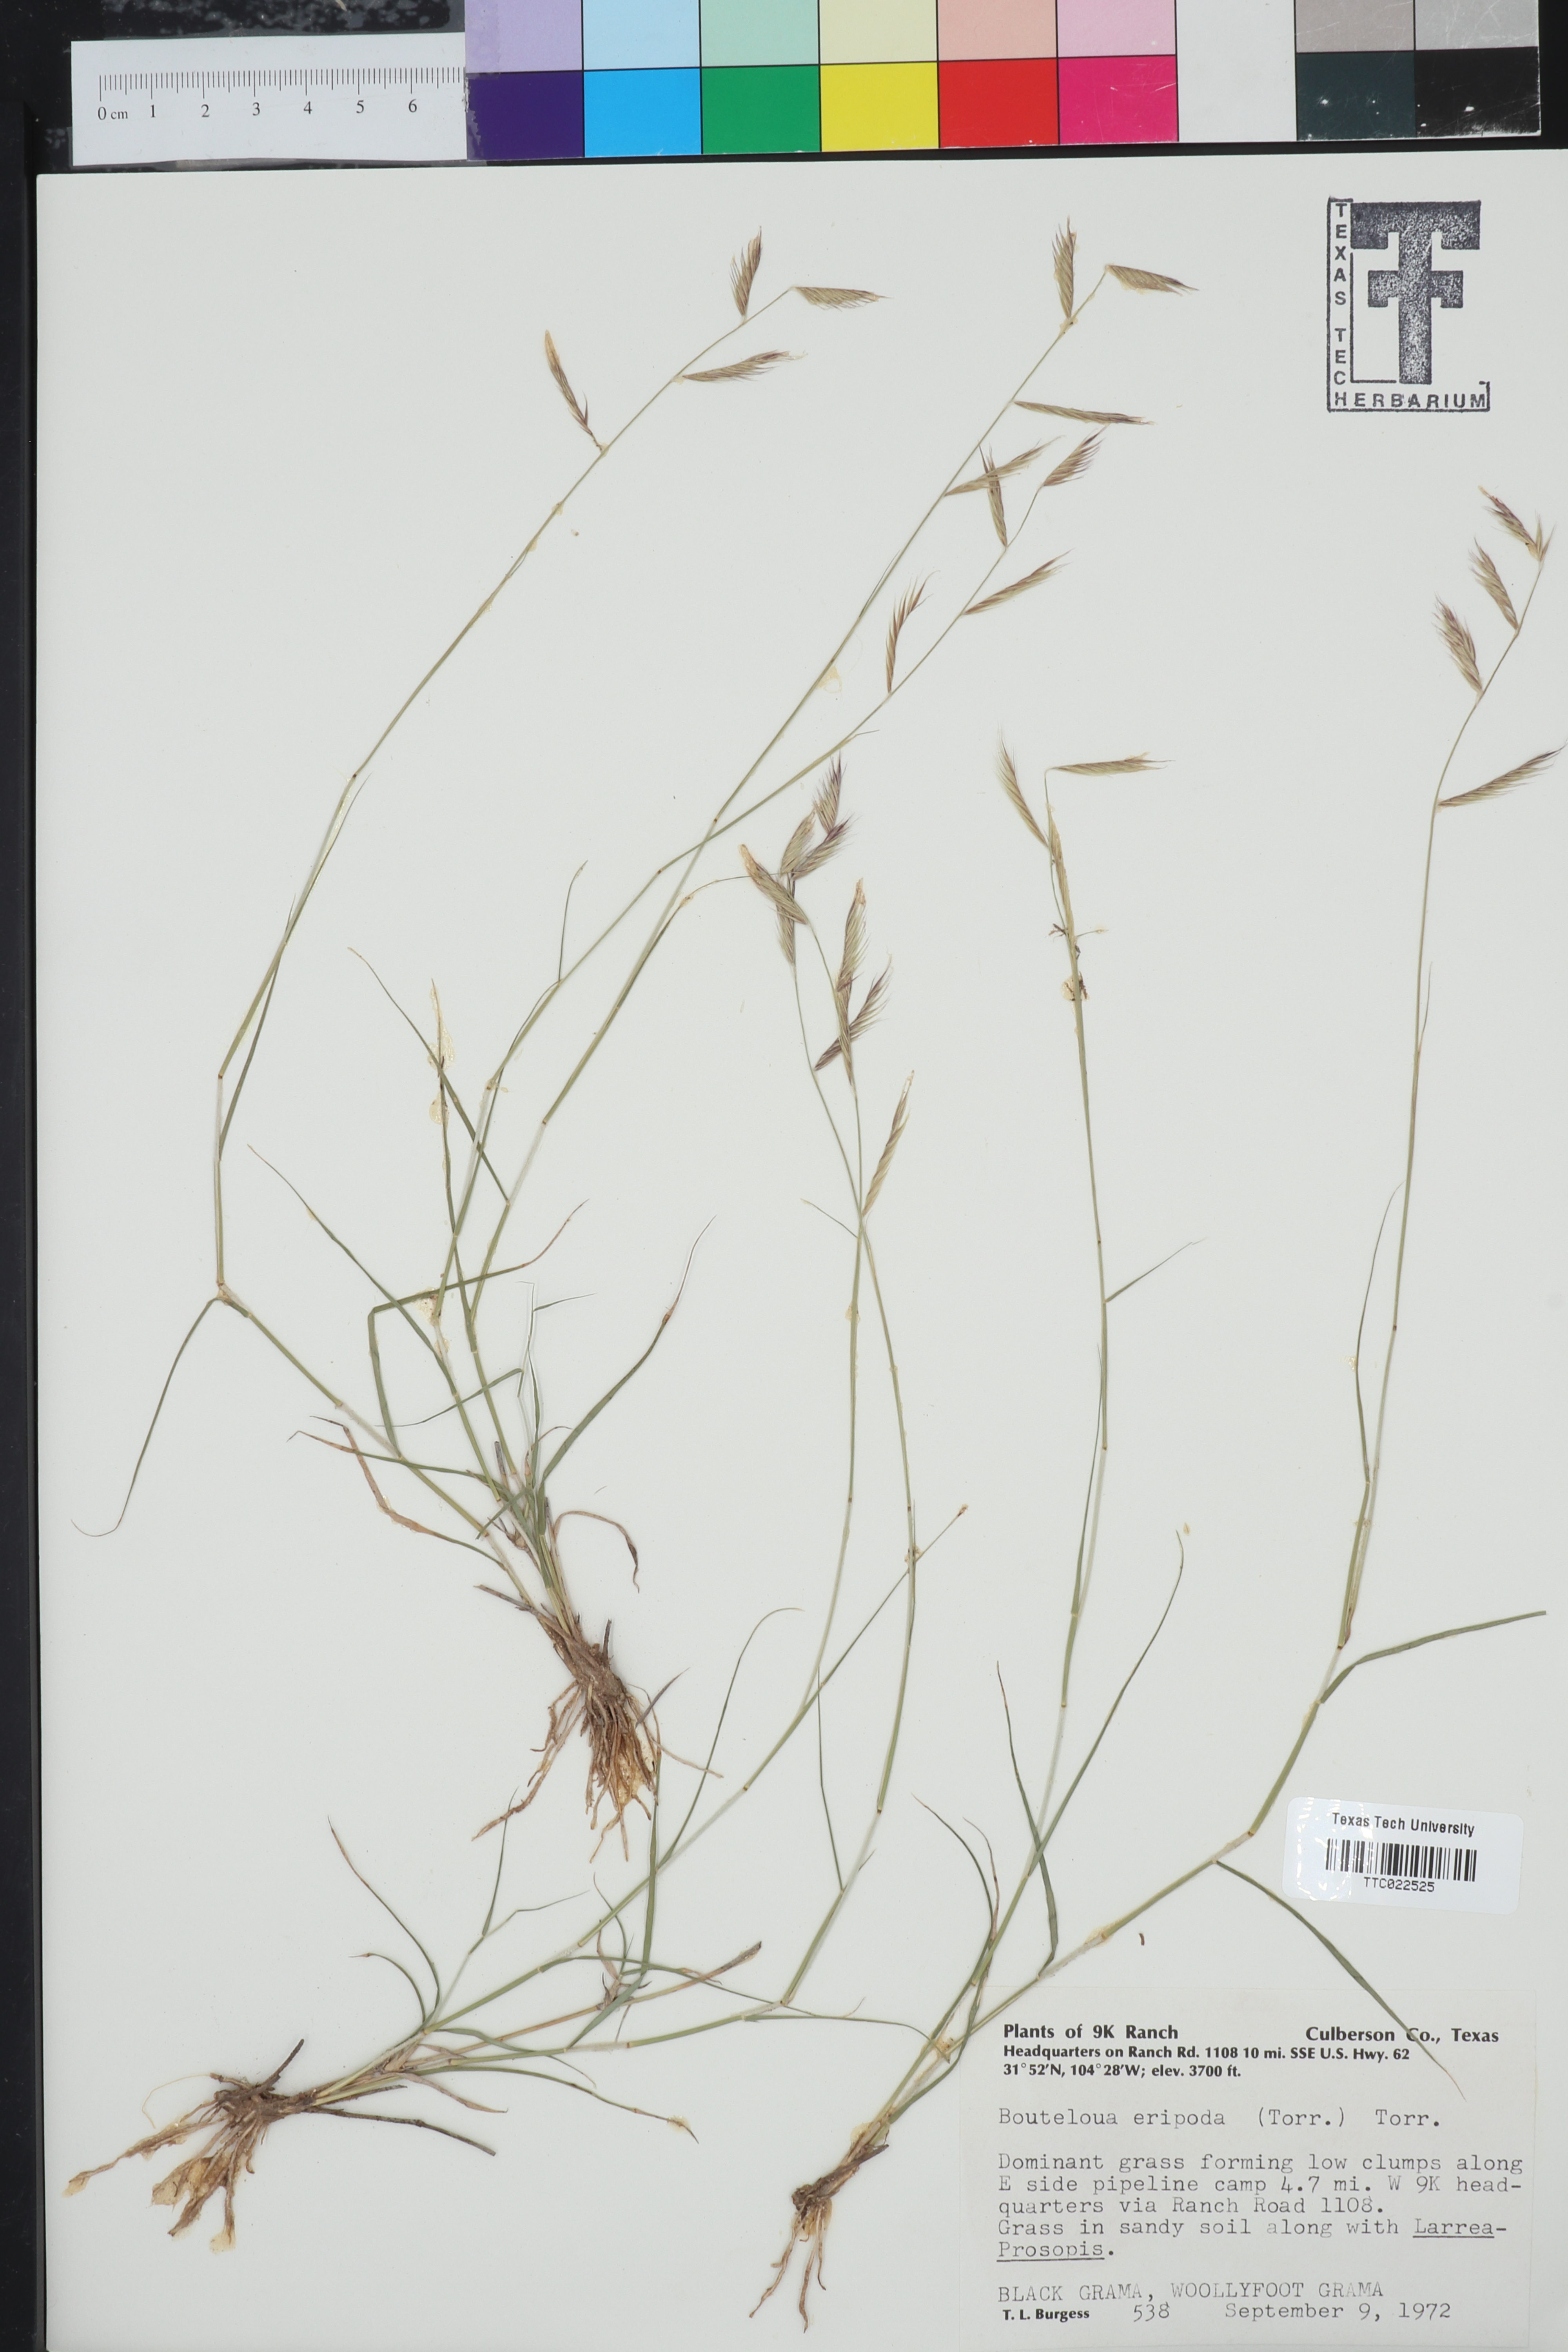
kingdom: Plantae
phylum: Tracheophyta
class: Liliopsida
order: Poales
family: Poaceae
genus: Bouteloua
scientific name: Bouteloua eriopoda
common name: Woolly foot grama
